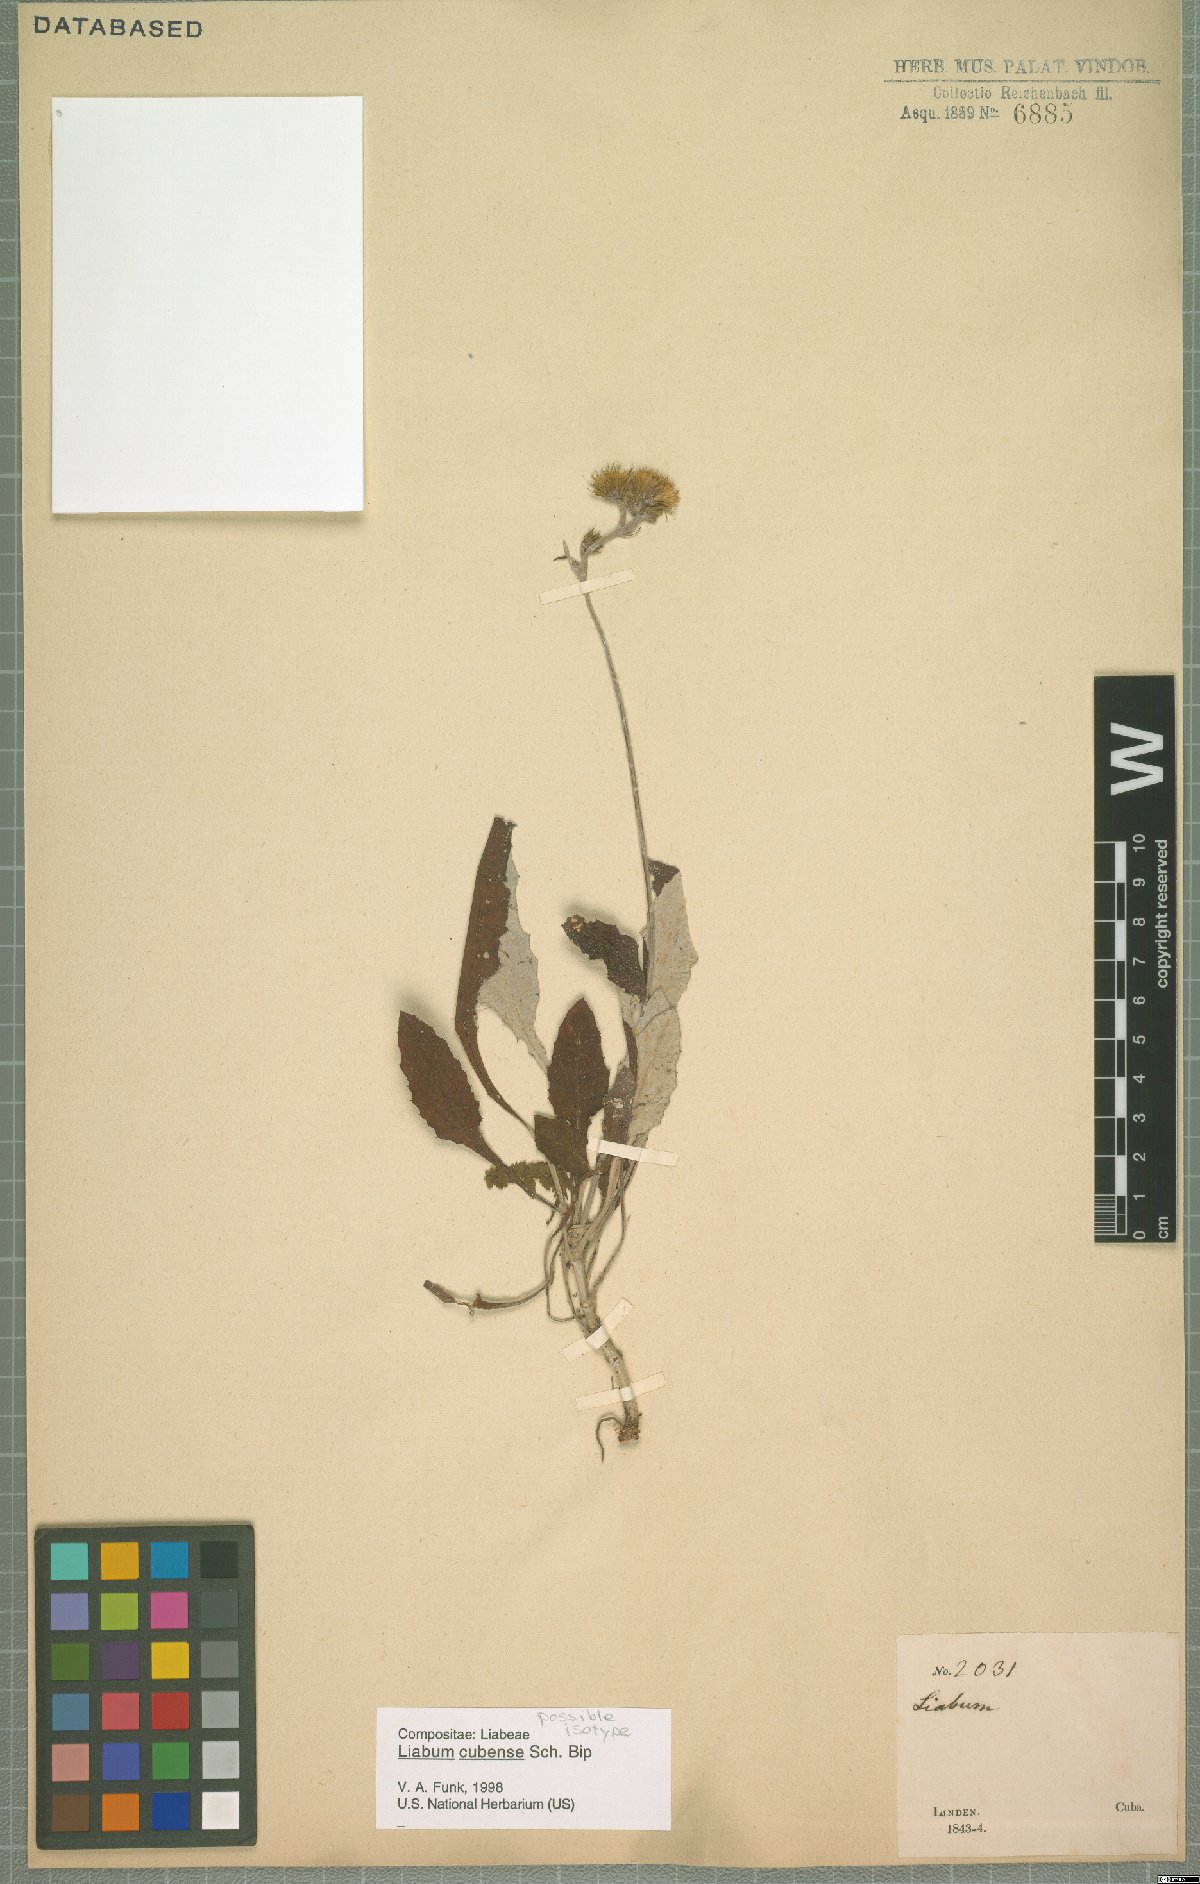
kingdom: Plantae
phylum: Tracheophyta
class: Magnoliopsida
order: Asterales
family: Asteraceae
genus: Liabum
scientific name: Liabum cubense
